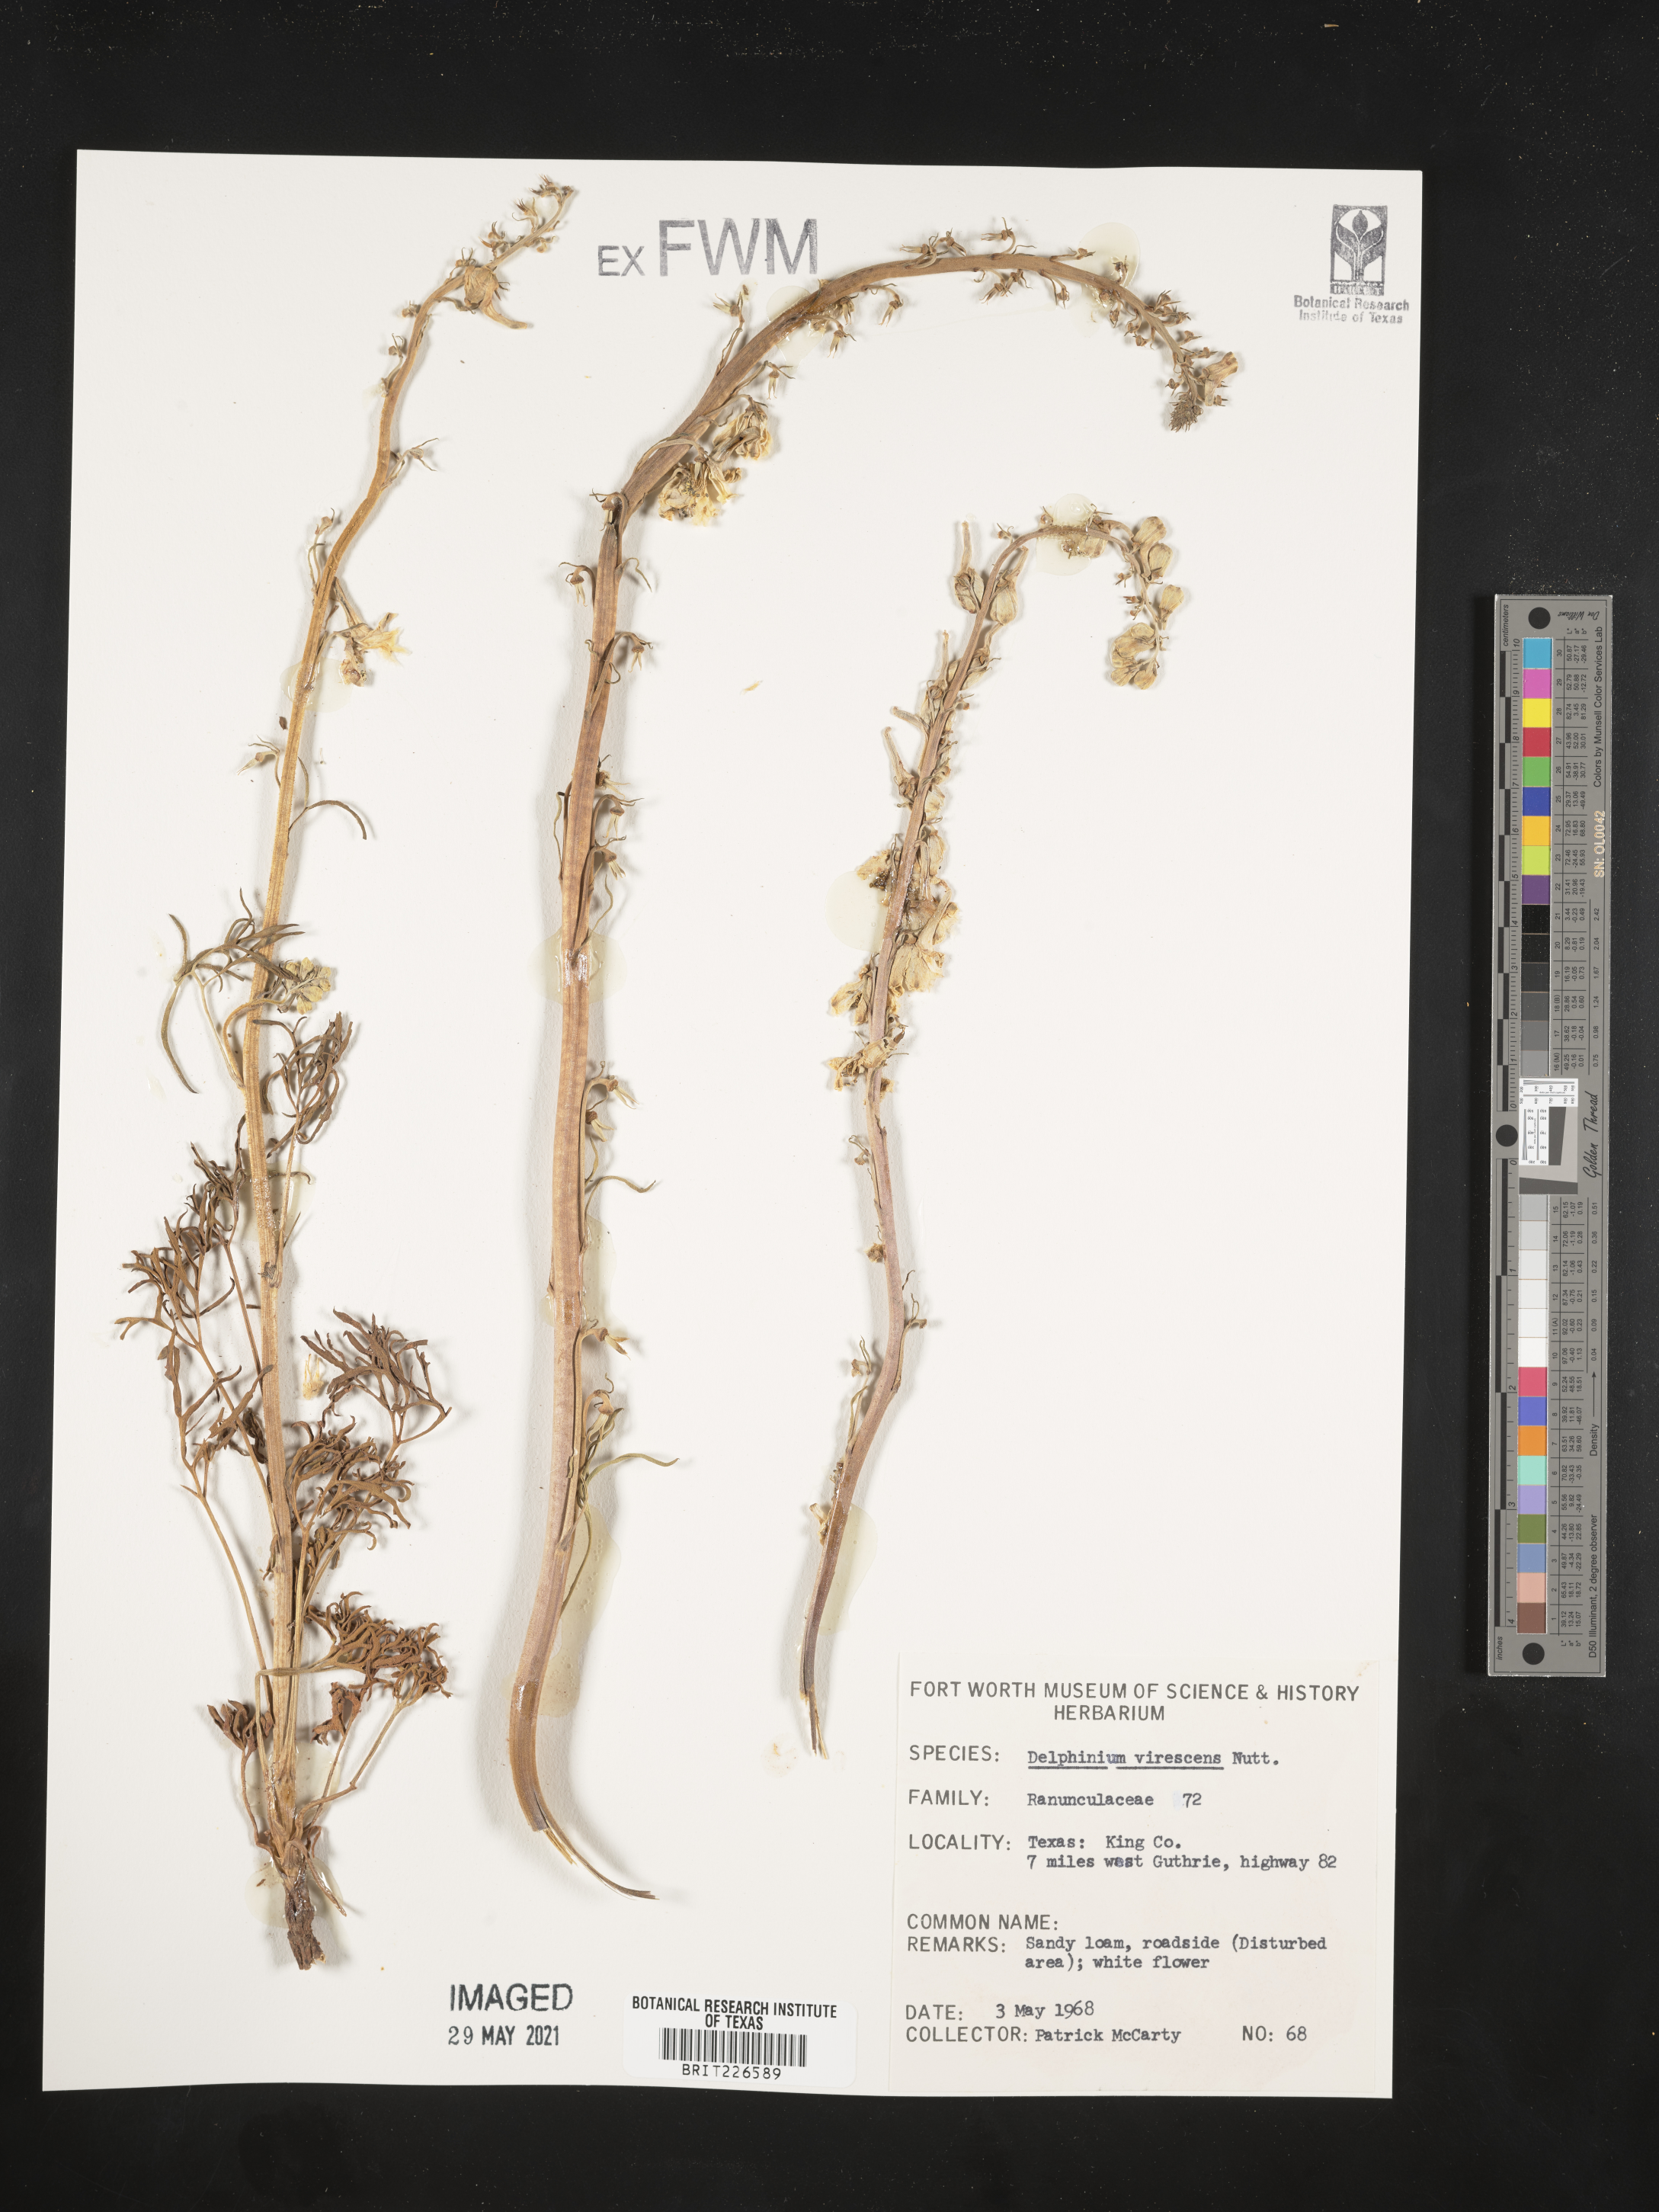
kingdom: Plantae
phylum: Tracheophyta
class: Magnoliopsida
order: Ranunculales
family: Ranunculaceae
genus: Delphinium
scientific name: Delphinium carolinianum
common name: Carolina larkspur
